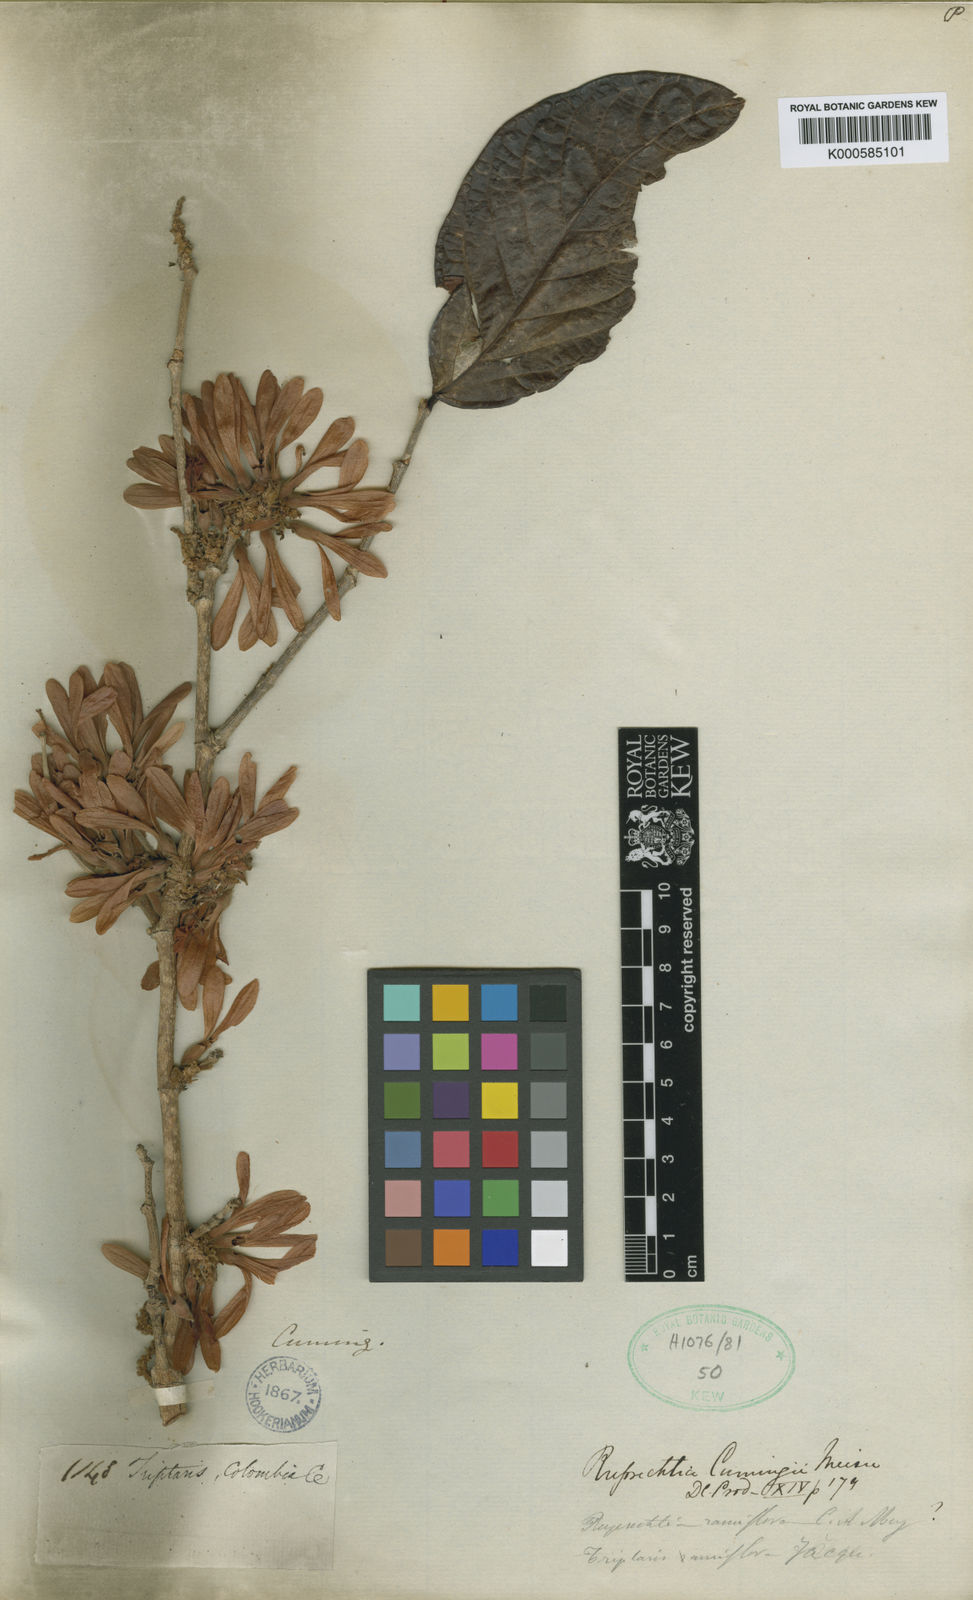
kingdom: Plantae
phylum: Tracheophyta
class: Magnoliopsida
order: Caryophyllales
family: Polygonaceae
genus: Ruprechtia
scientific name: Ruprechtia ramiflora
